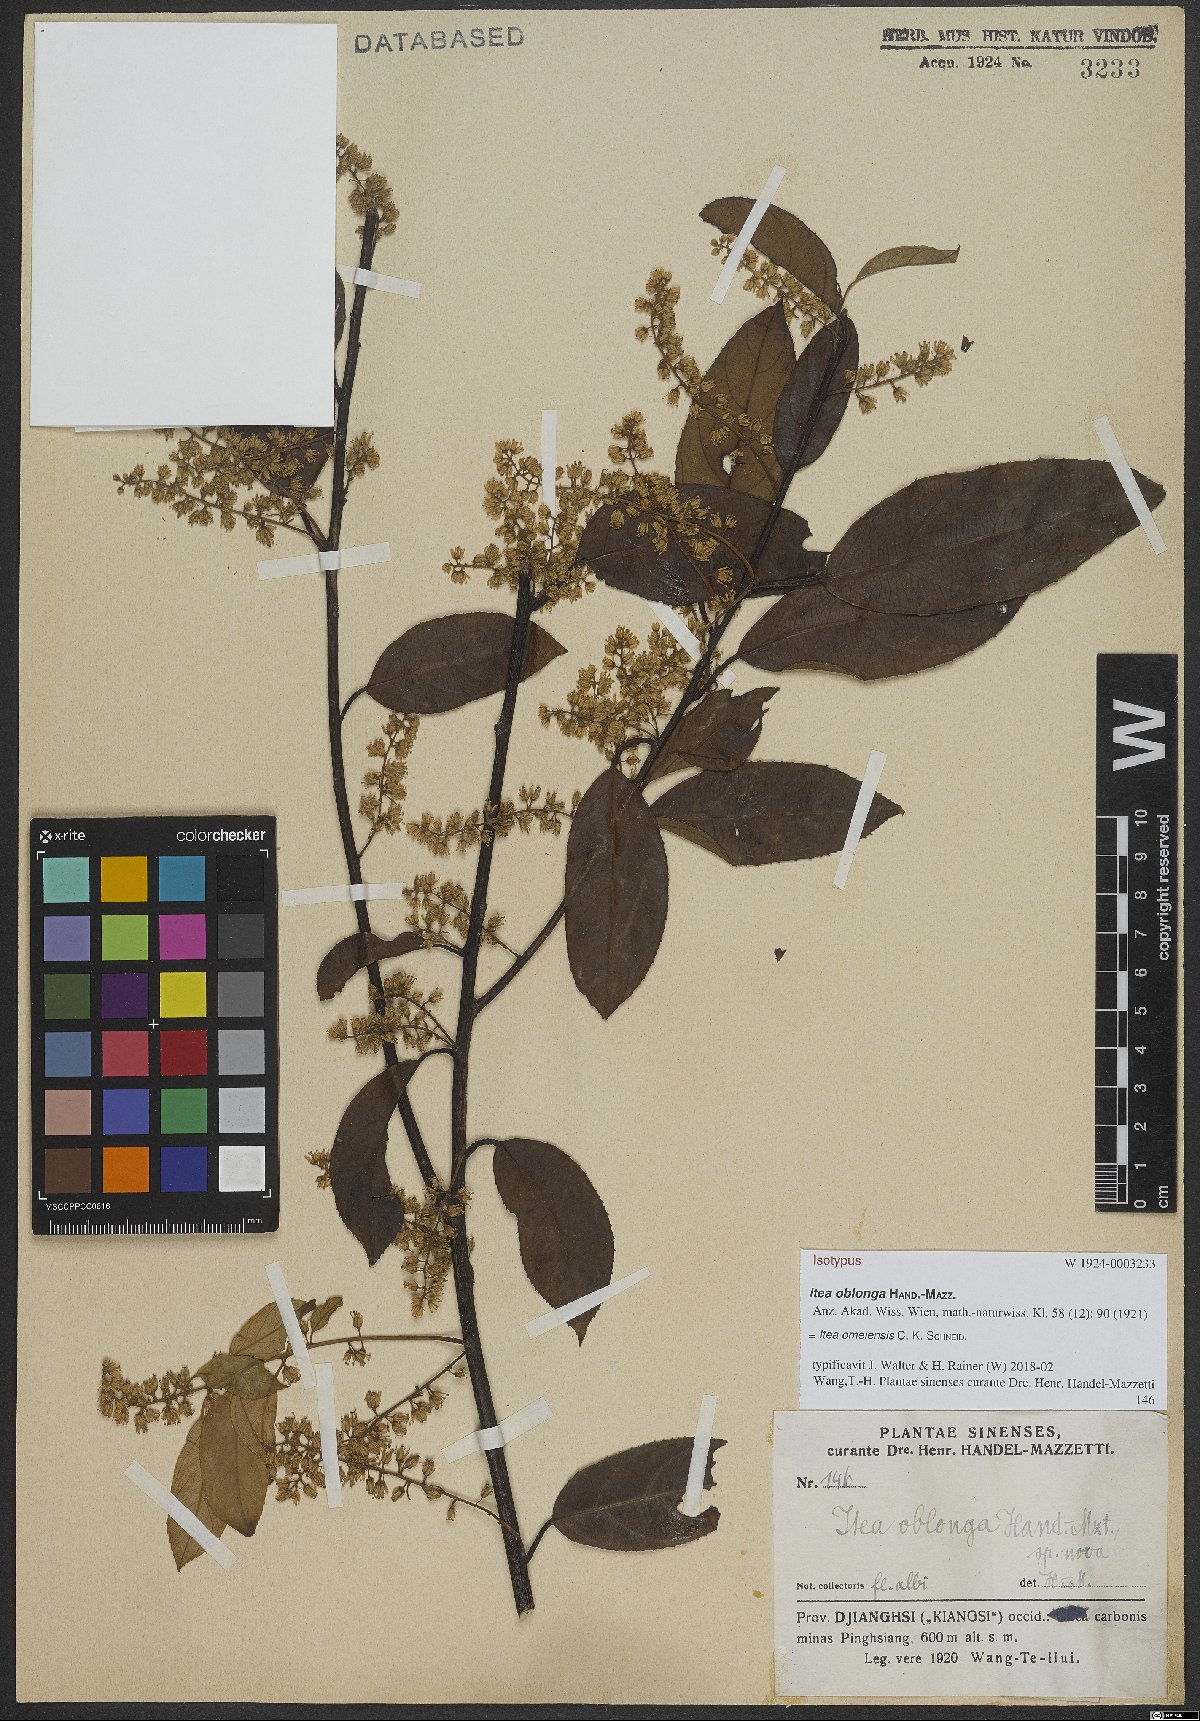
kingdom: Plantae
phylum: Tracheophyta
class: Magnoliopsida
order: Saxifragales
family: Iteaceae
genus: Itea
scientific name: Itea omeiensis
